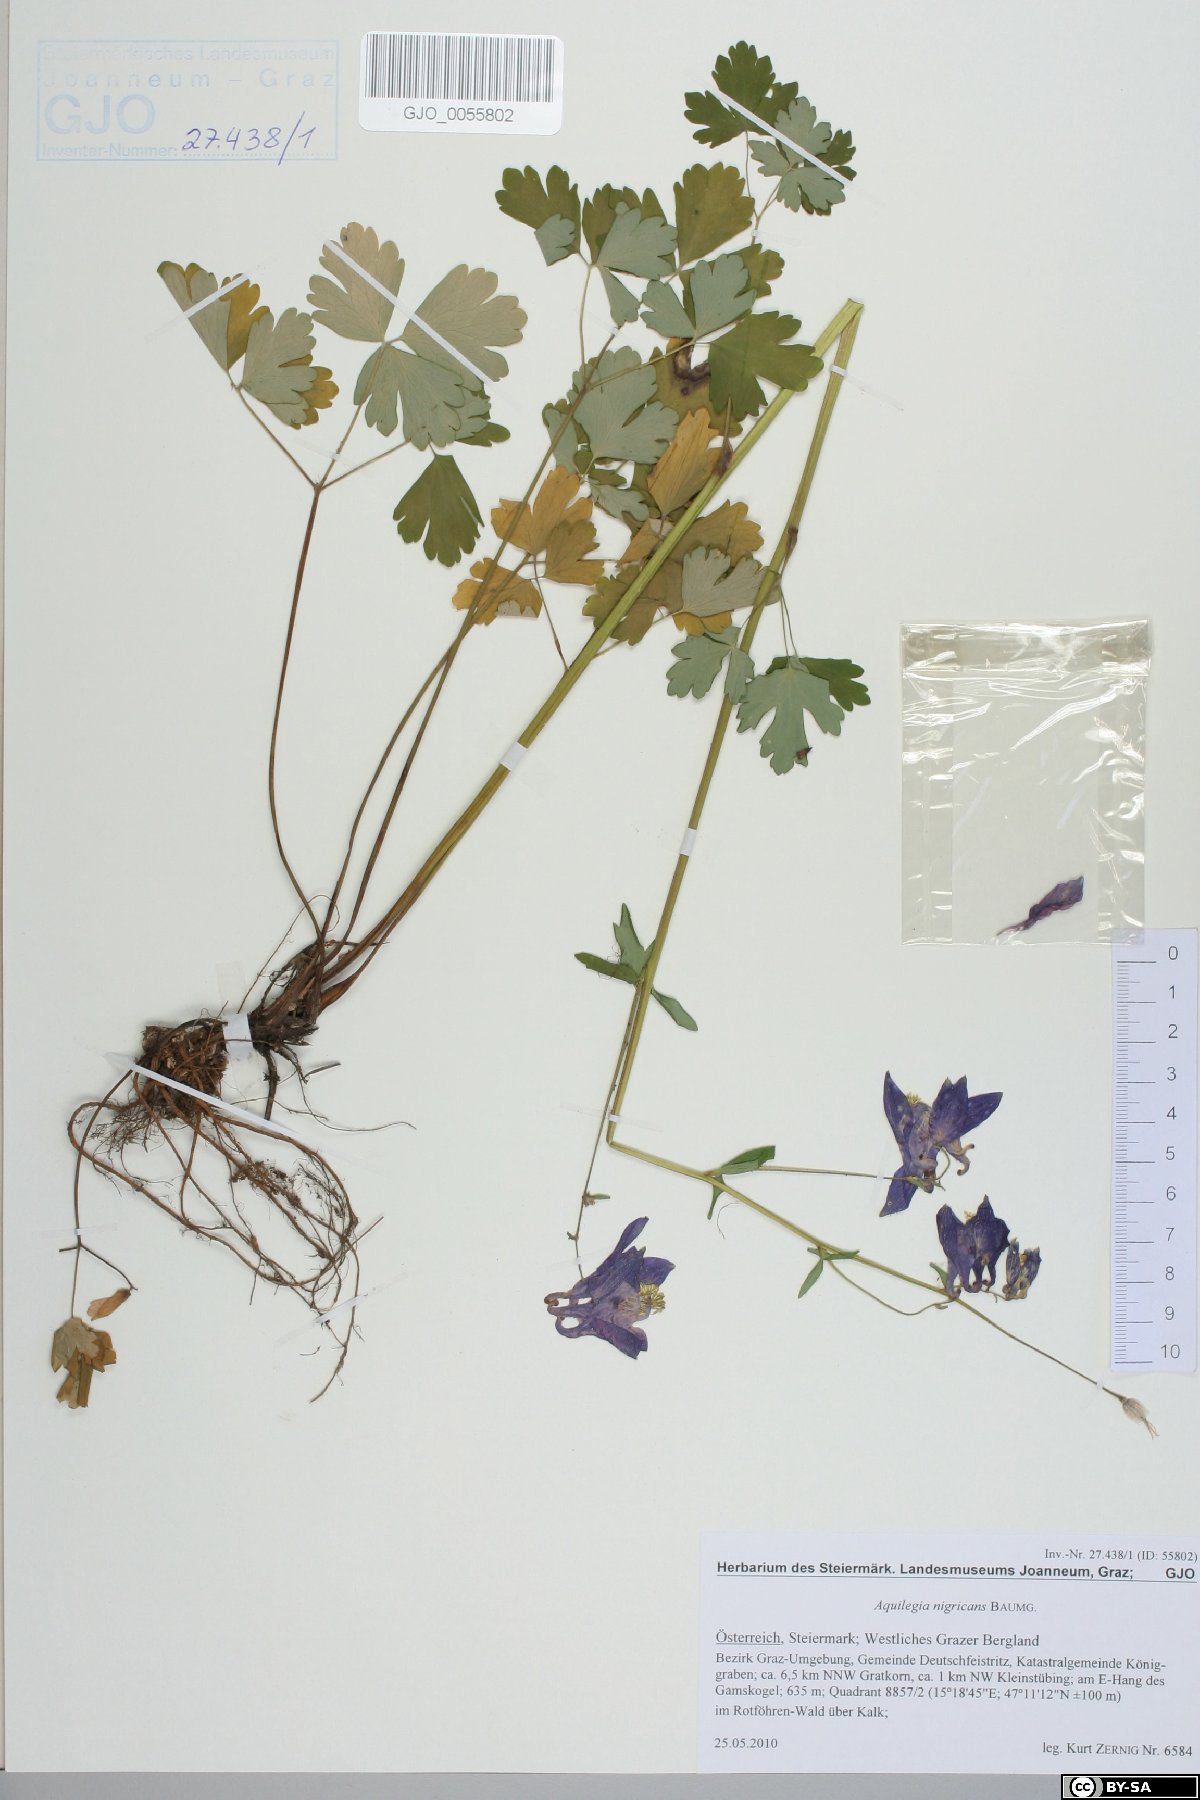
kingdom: Plantae
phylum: Tracheophyta
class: Magnoliopsida
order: Ranunculales
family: Ranunculaceae
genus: Aquilegia
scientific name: Aquilegia nigricans
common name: Bulgarian columbine
